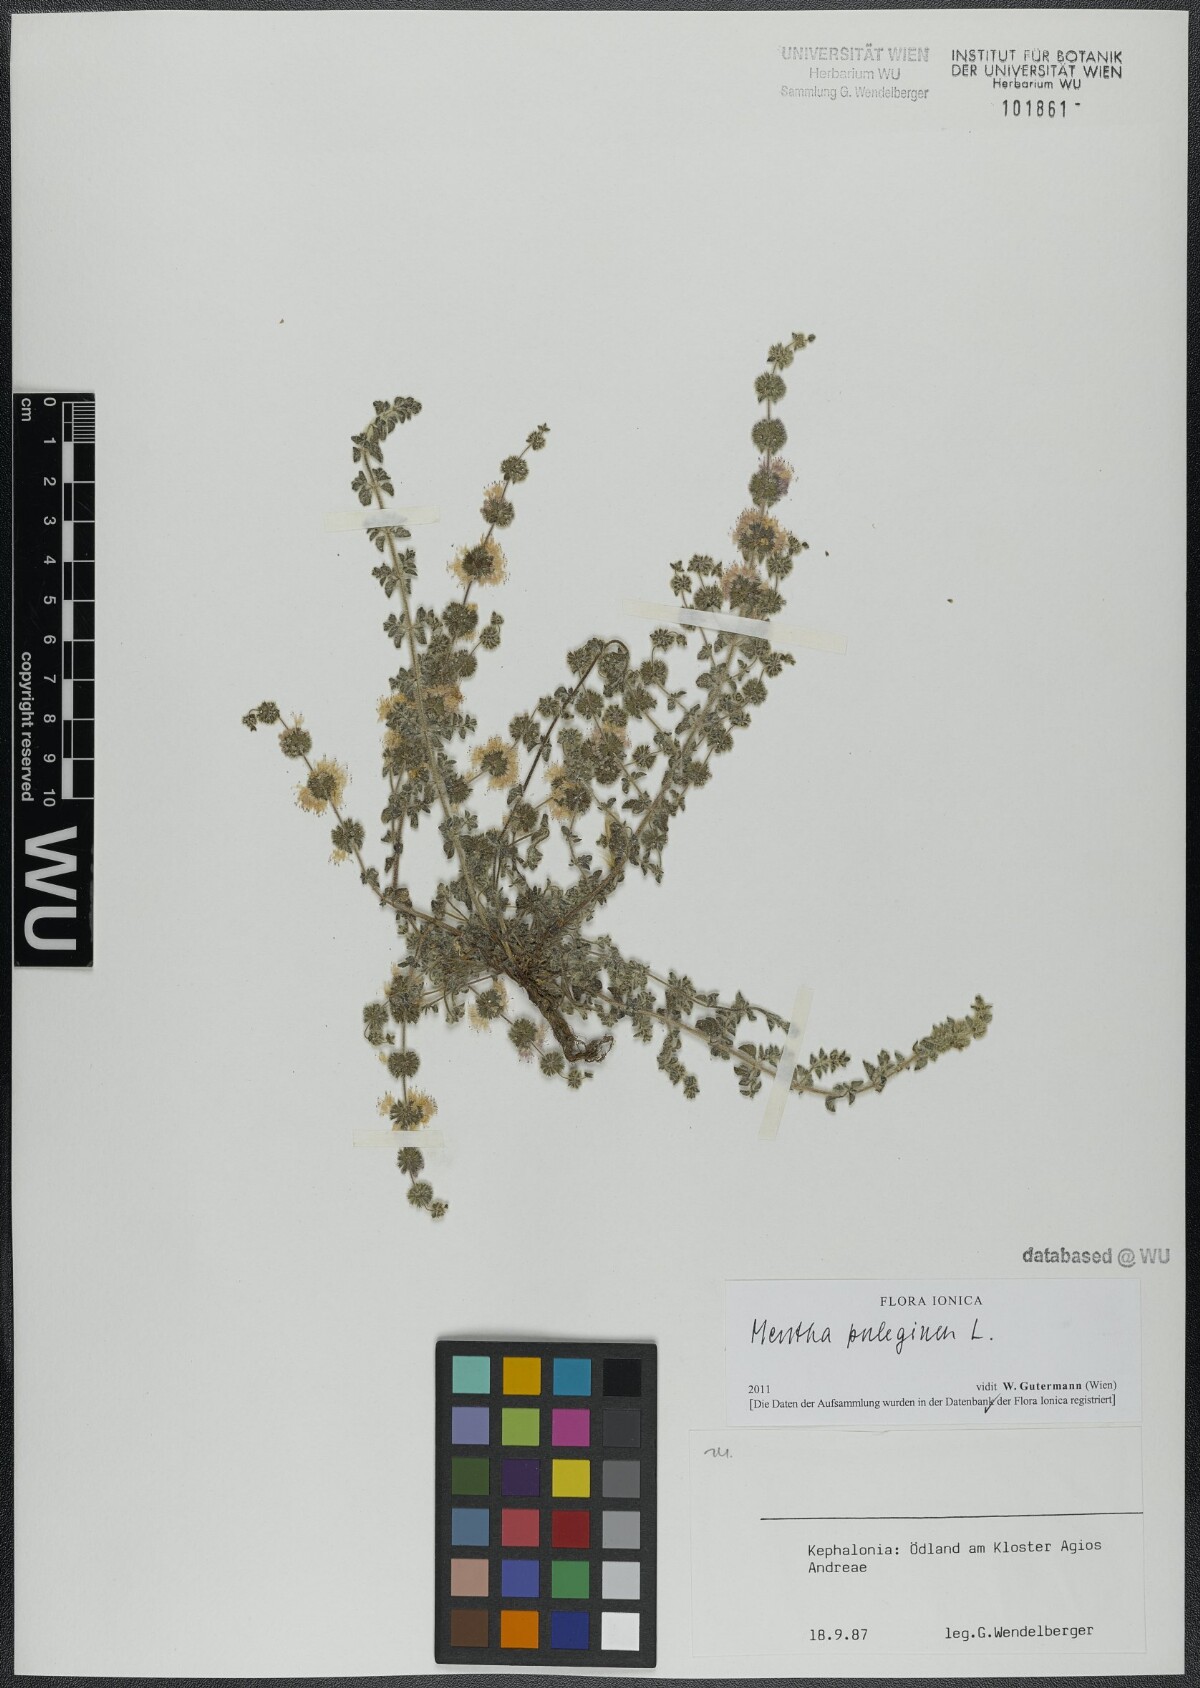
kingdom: Plantae
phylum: Tracheophyta
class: Magnoliopsida
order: Lamiales
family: Lamiaceae
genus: Mentha
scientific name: Mentha pulegium
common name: Pennyroyal
